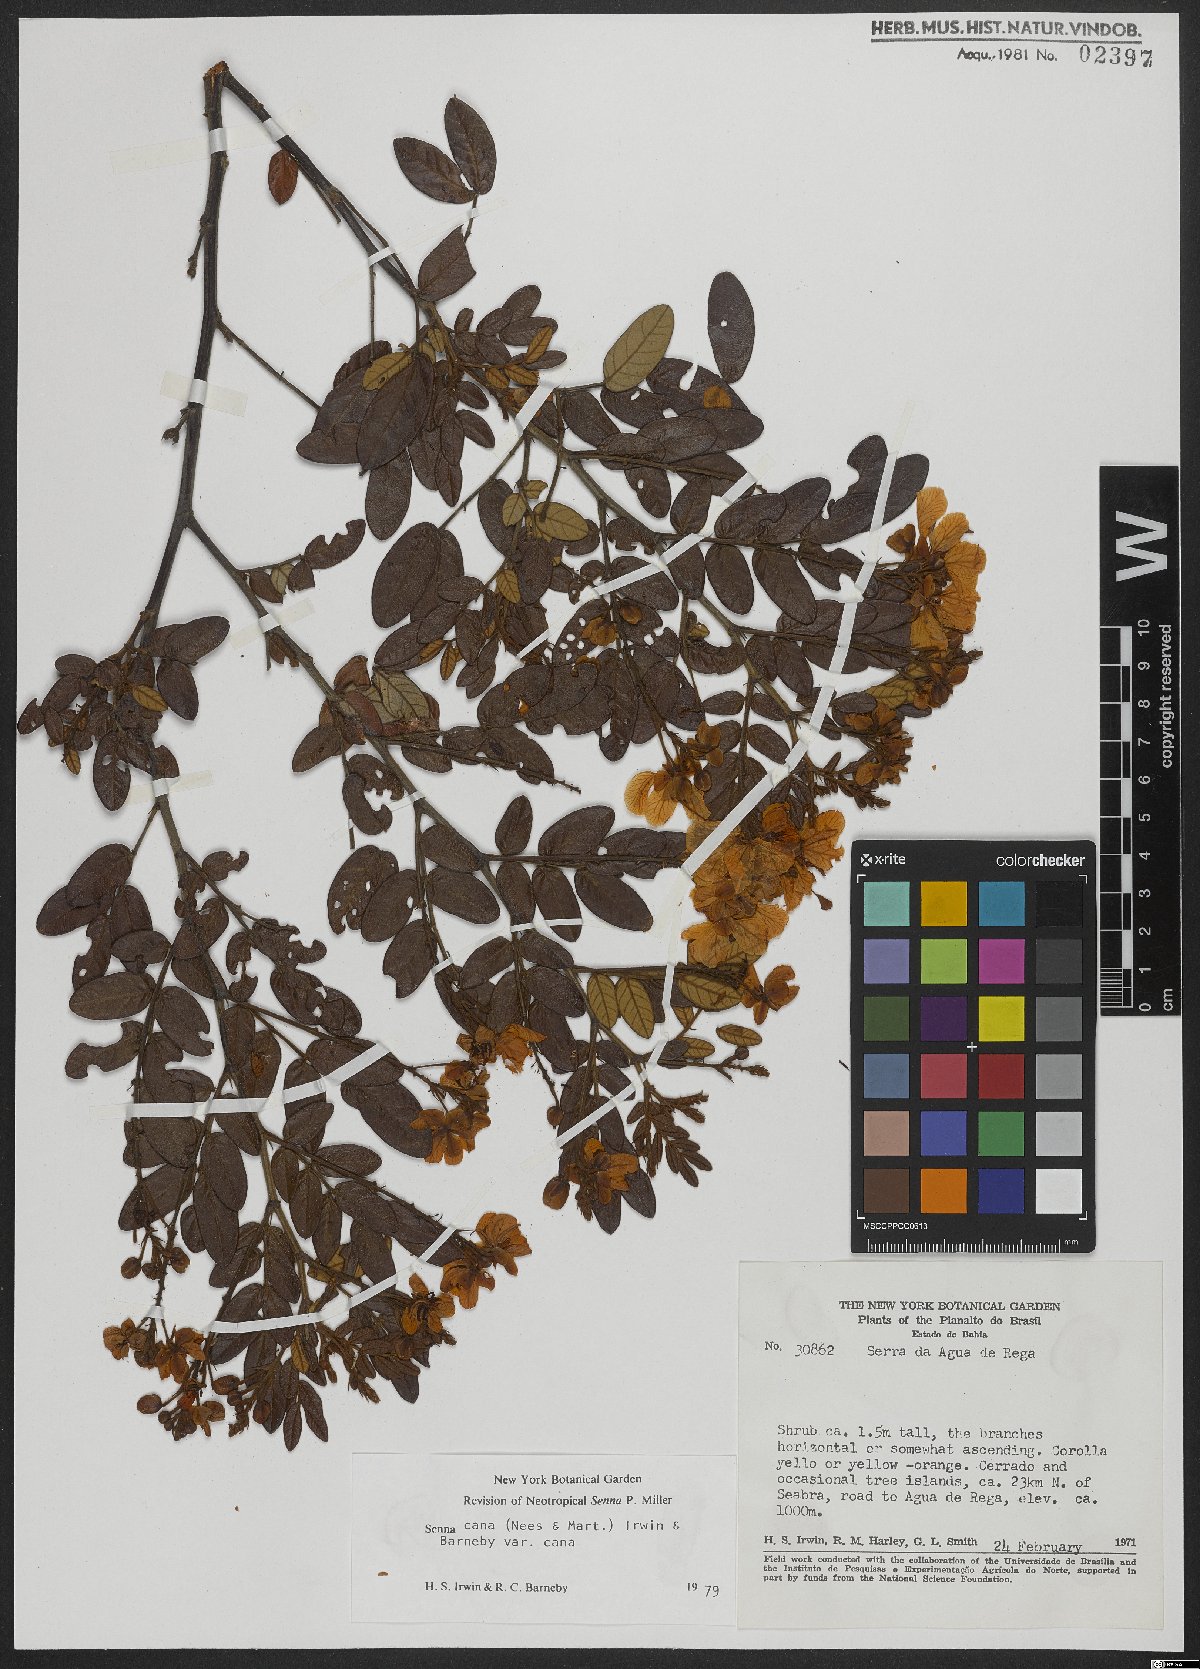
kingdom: Plantae
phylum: Tracheophyta
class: Magnoliopsida
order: Fabales
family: Fabaceae
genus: Senna
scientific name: Senna cana
